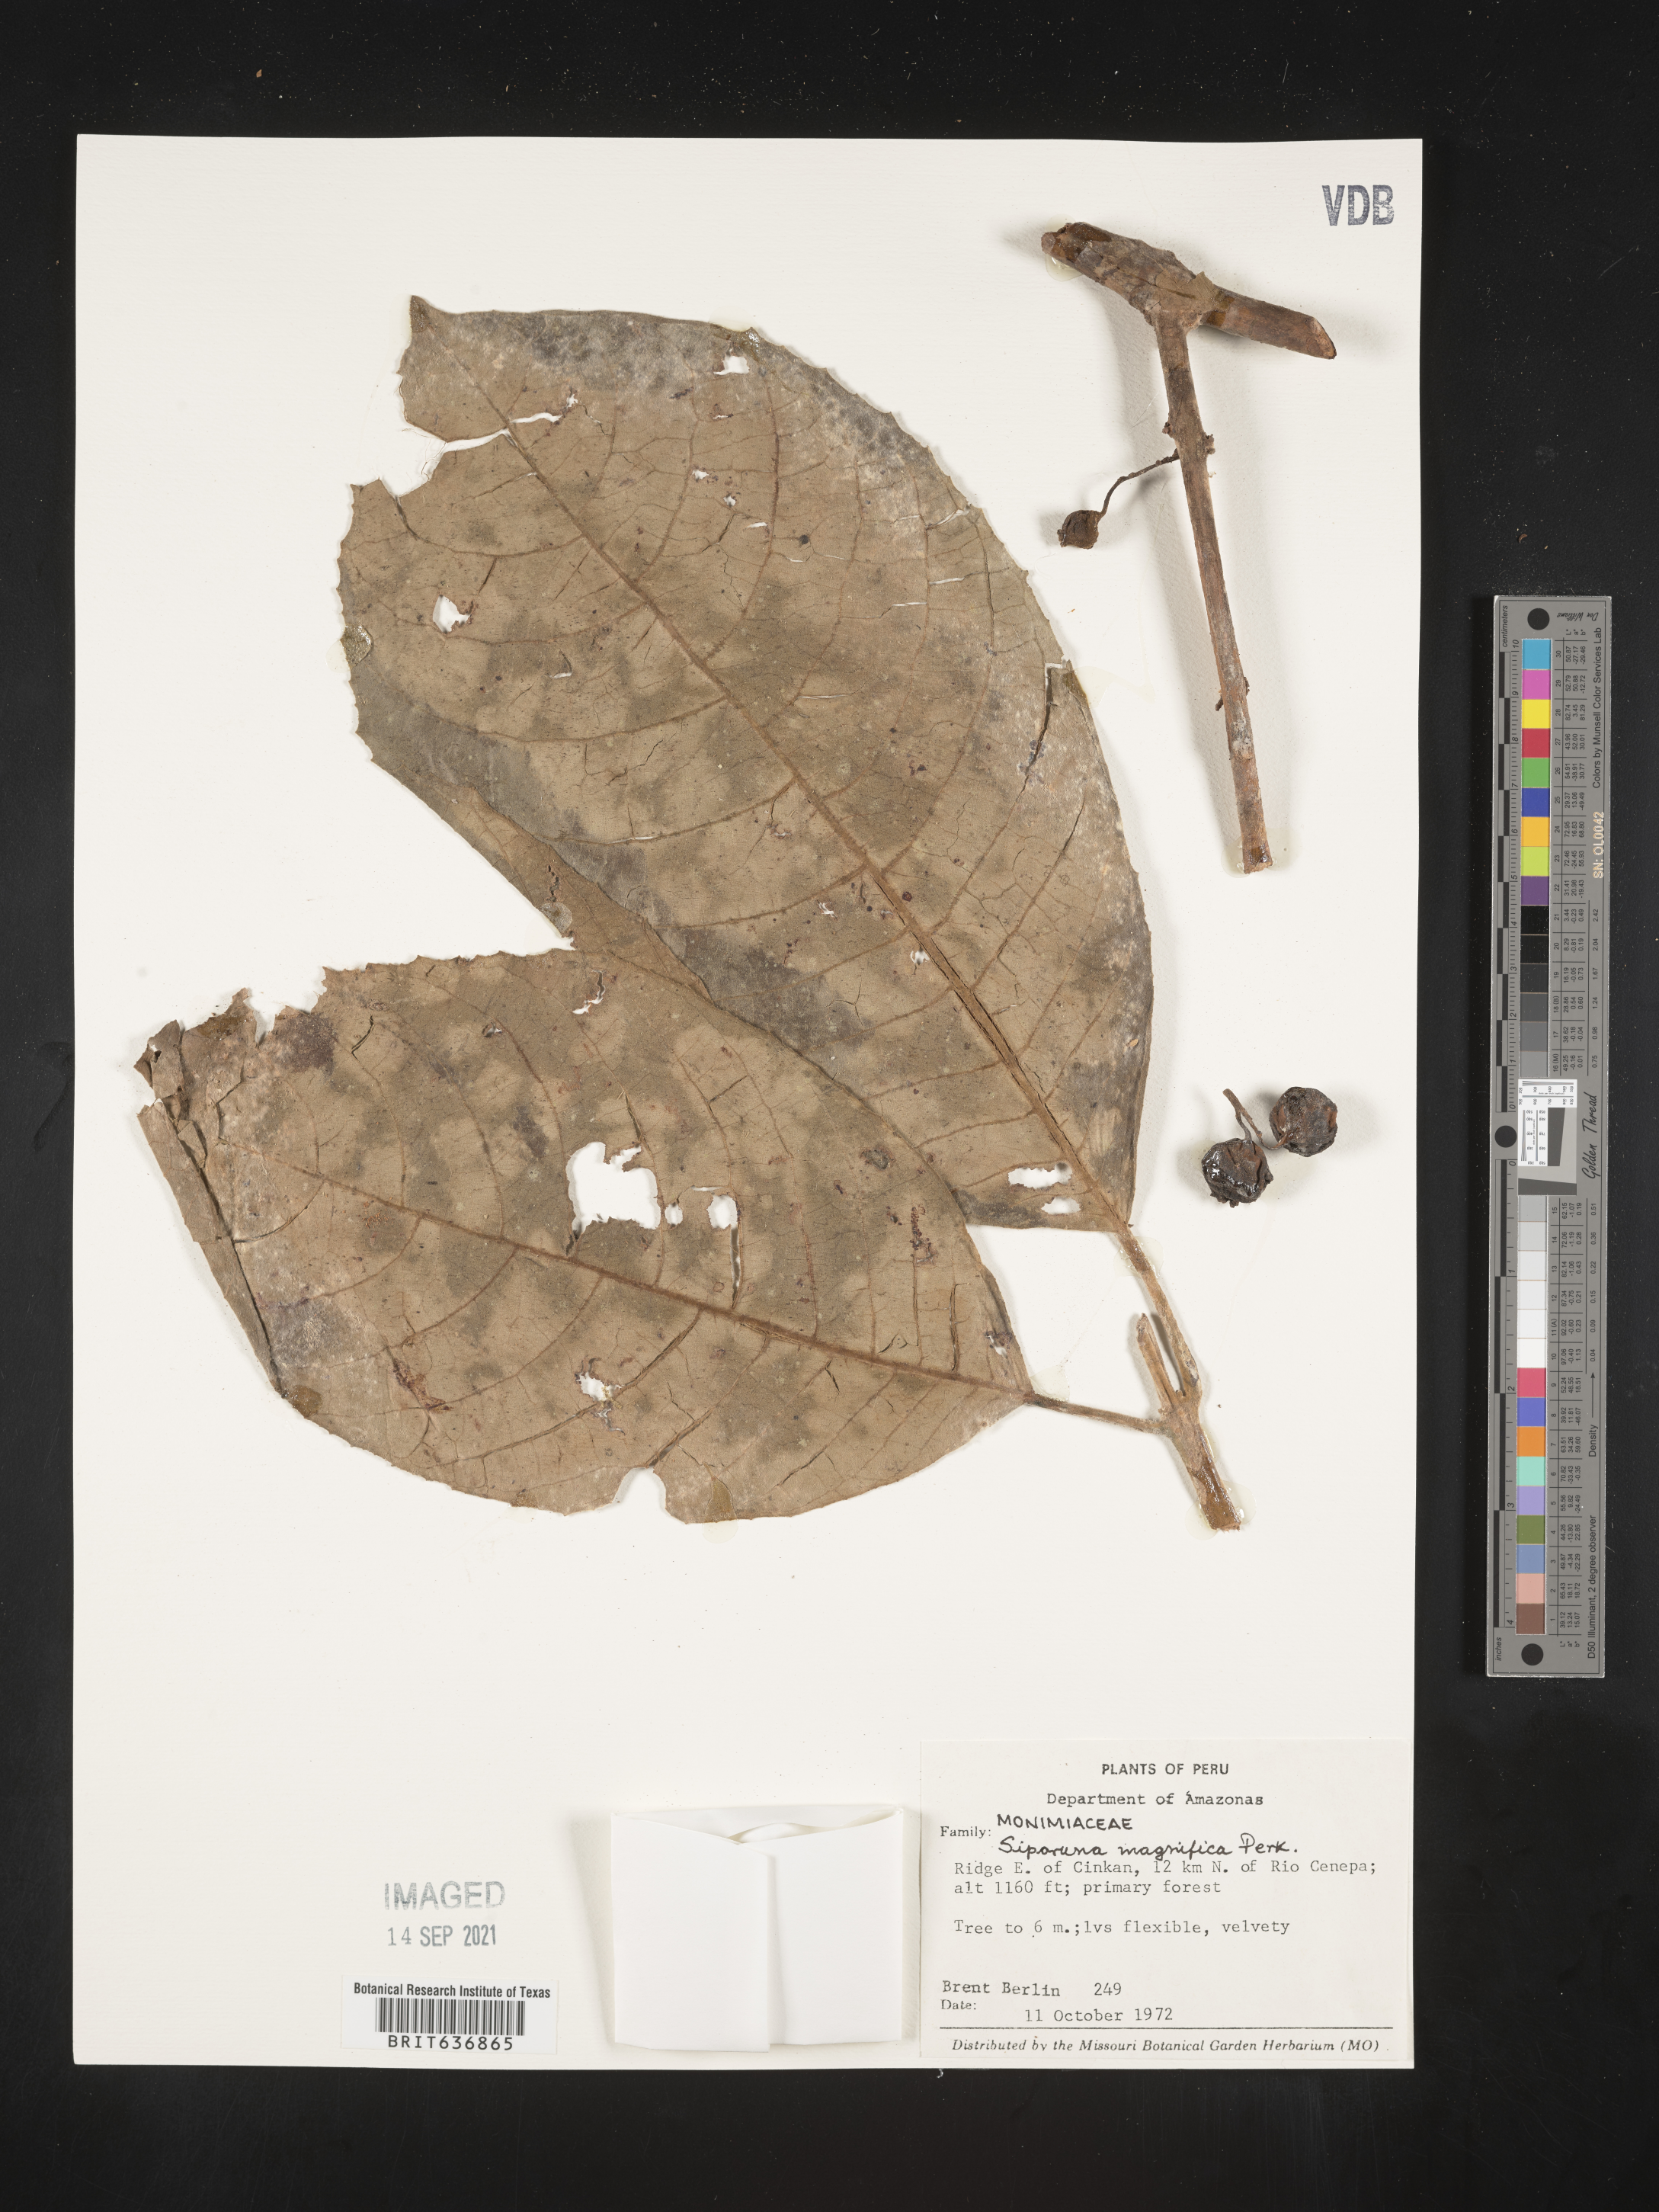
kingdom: Plantae
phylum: Tracheophyta
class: Magnoliopsida
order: Laurales
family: Siparunaceae
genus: Siparuna
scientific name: Siparuna
